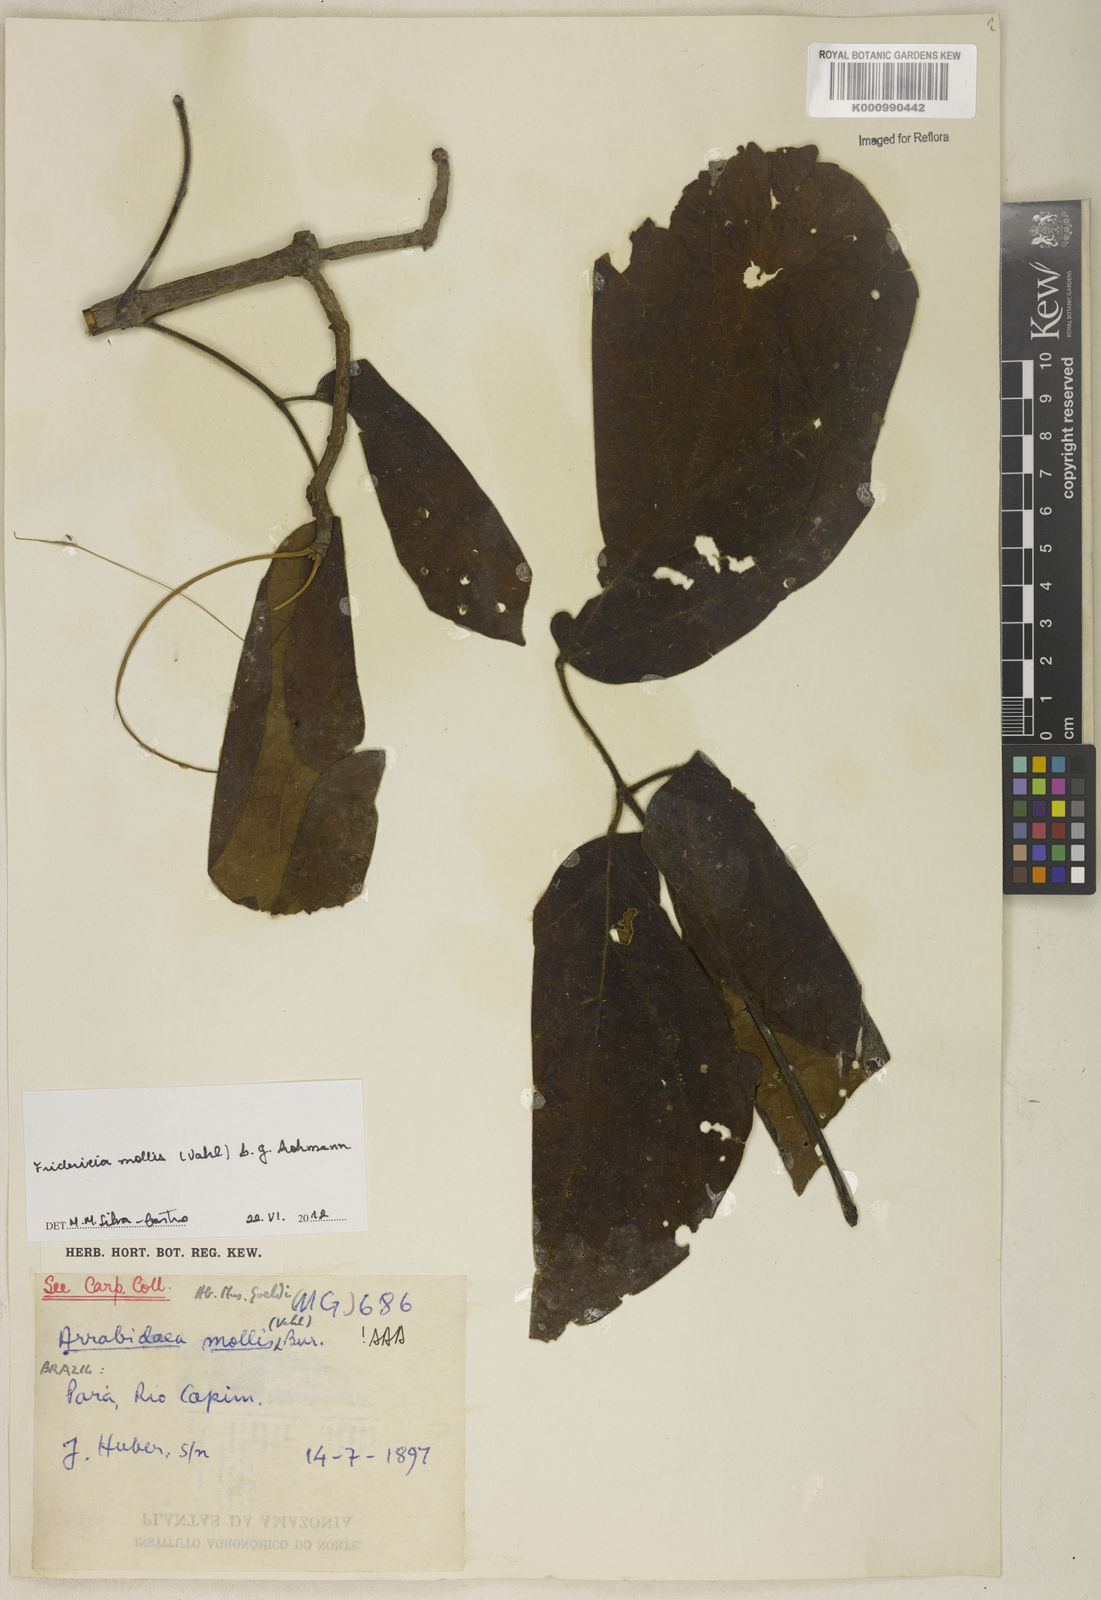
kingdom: Plantae
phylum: Tracheophyta
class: Magnoliopsida
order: Lamiales
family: Bignoniaceae
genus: Fridericia
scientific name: Fridericia mollis
